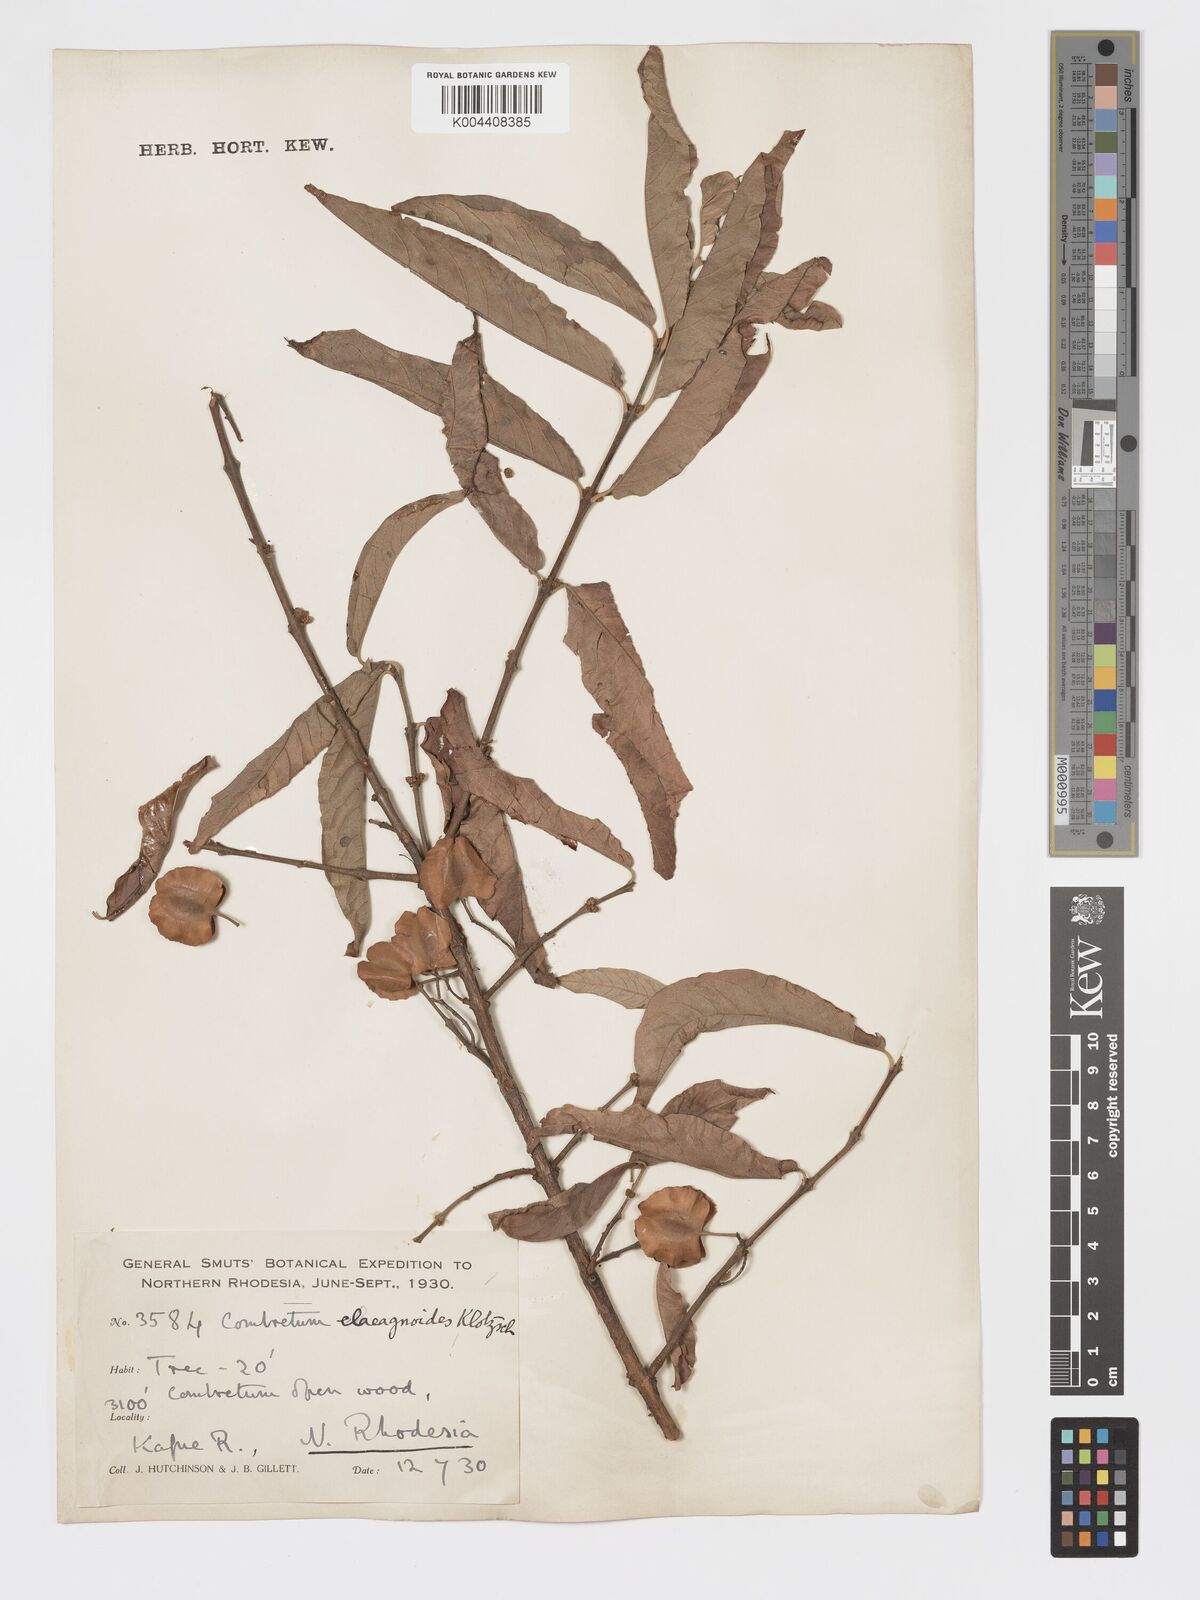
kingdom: Plantae
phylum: Tracheophyta
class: Magnoliopsida
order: Myrtales
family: Combretaceae
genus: Combretum
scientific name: Combretum elaeagnoides
